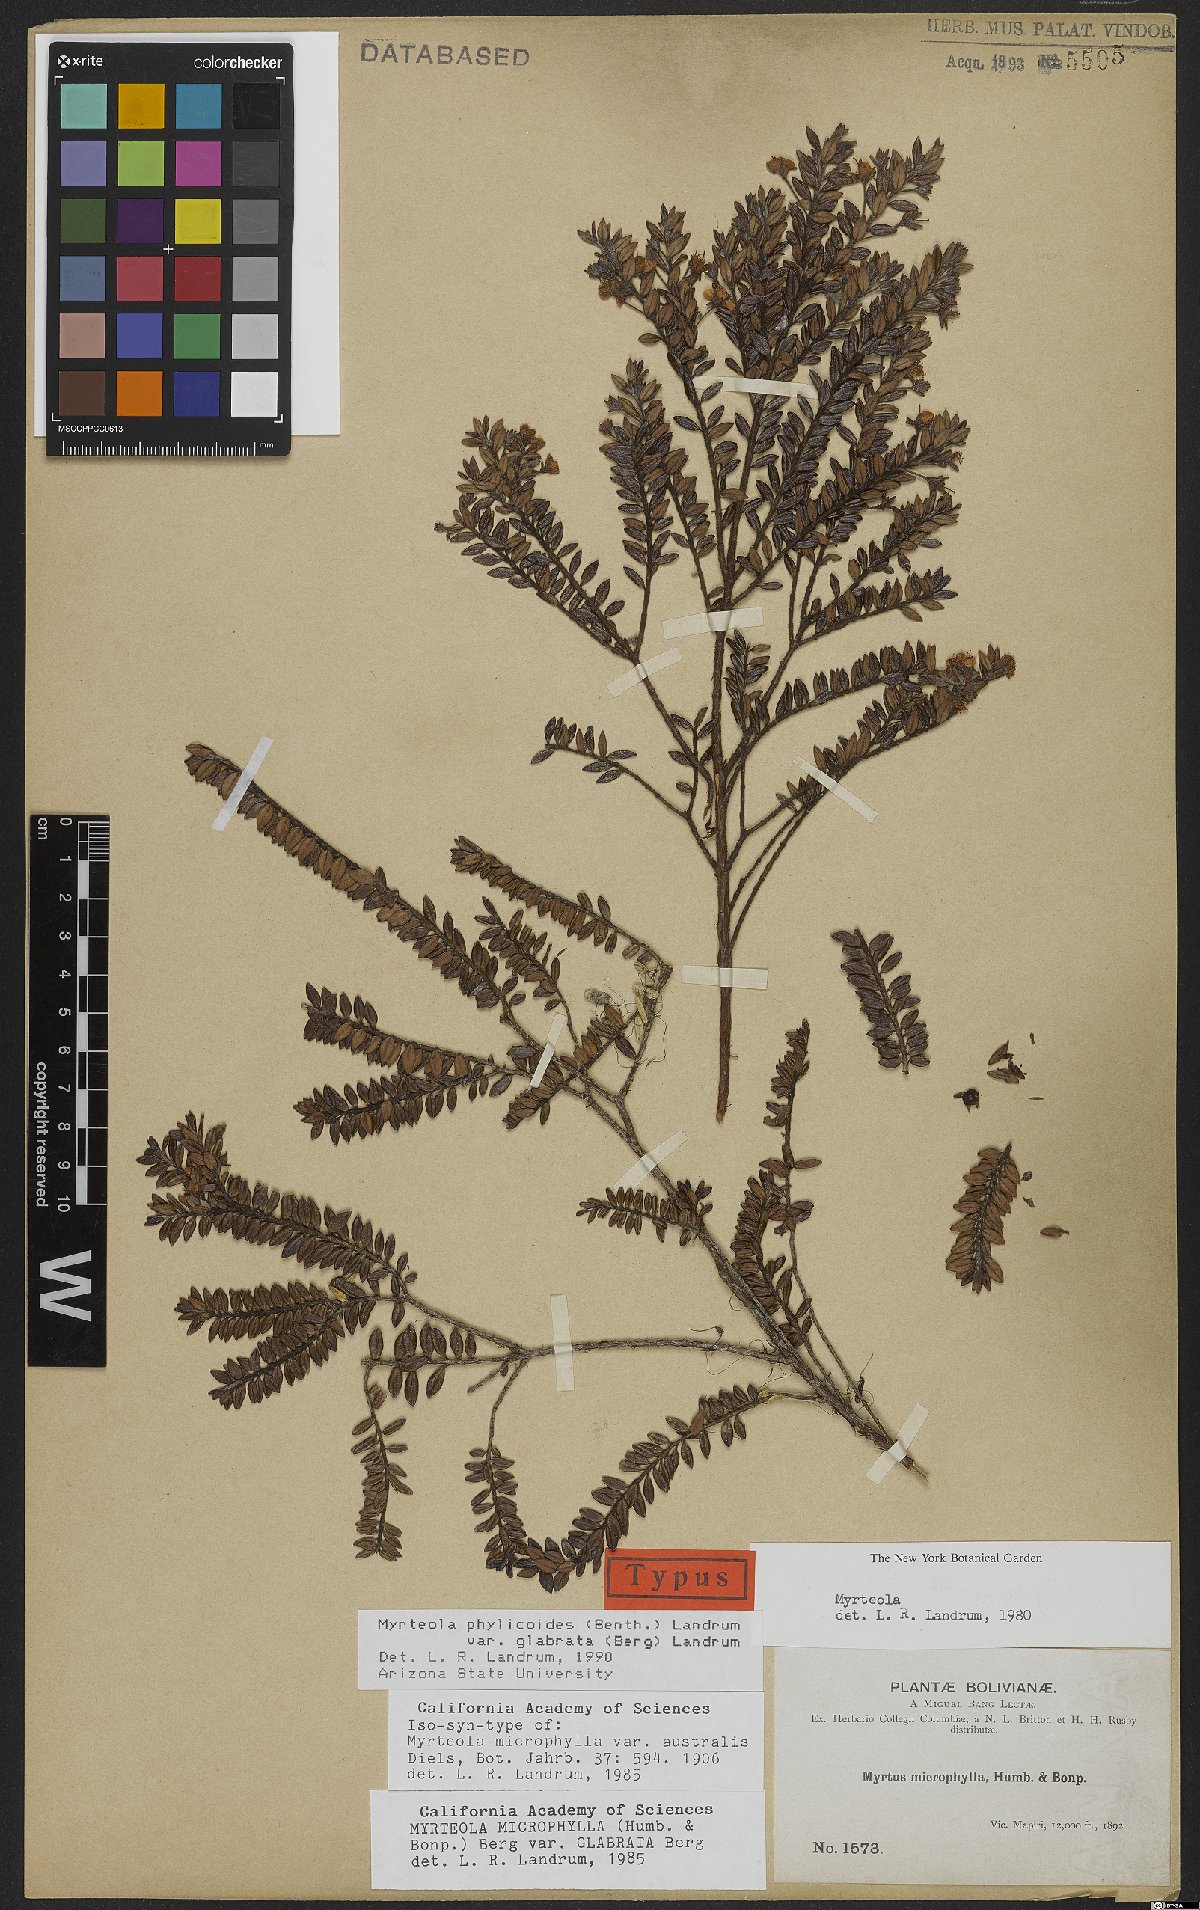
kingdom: Plantae
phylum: Tracheophyta
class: Magnoliopsida
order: Myrtales
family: Myrtaceae
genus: Myrteola
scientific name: Myrteola phylicoides
